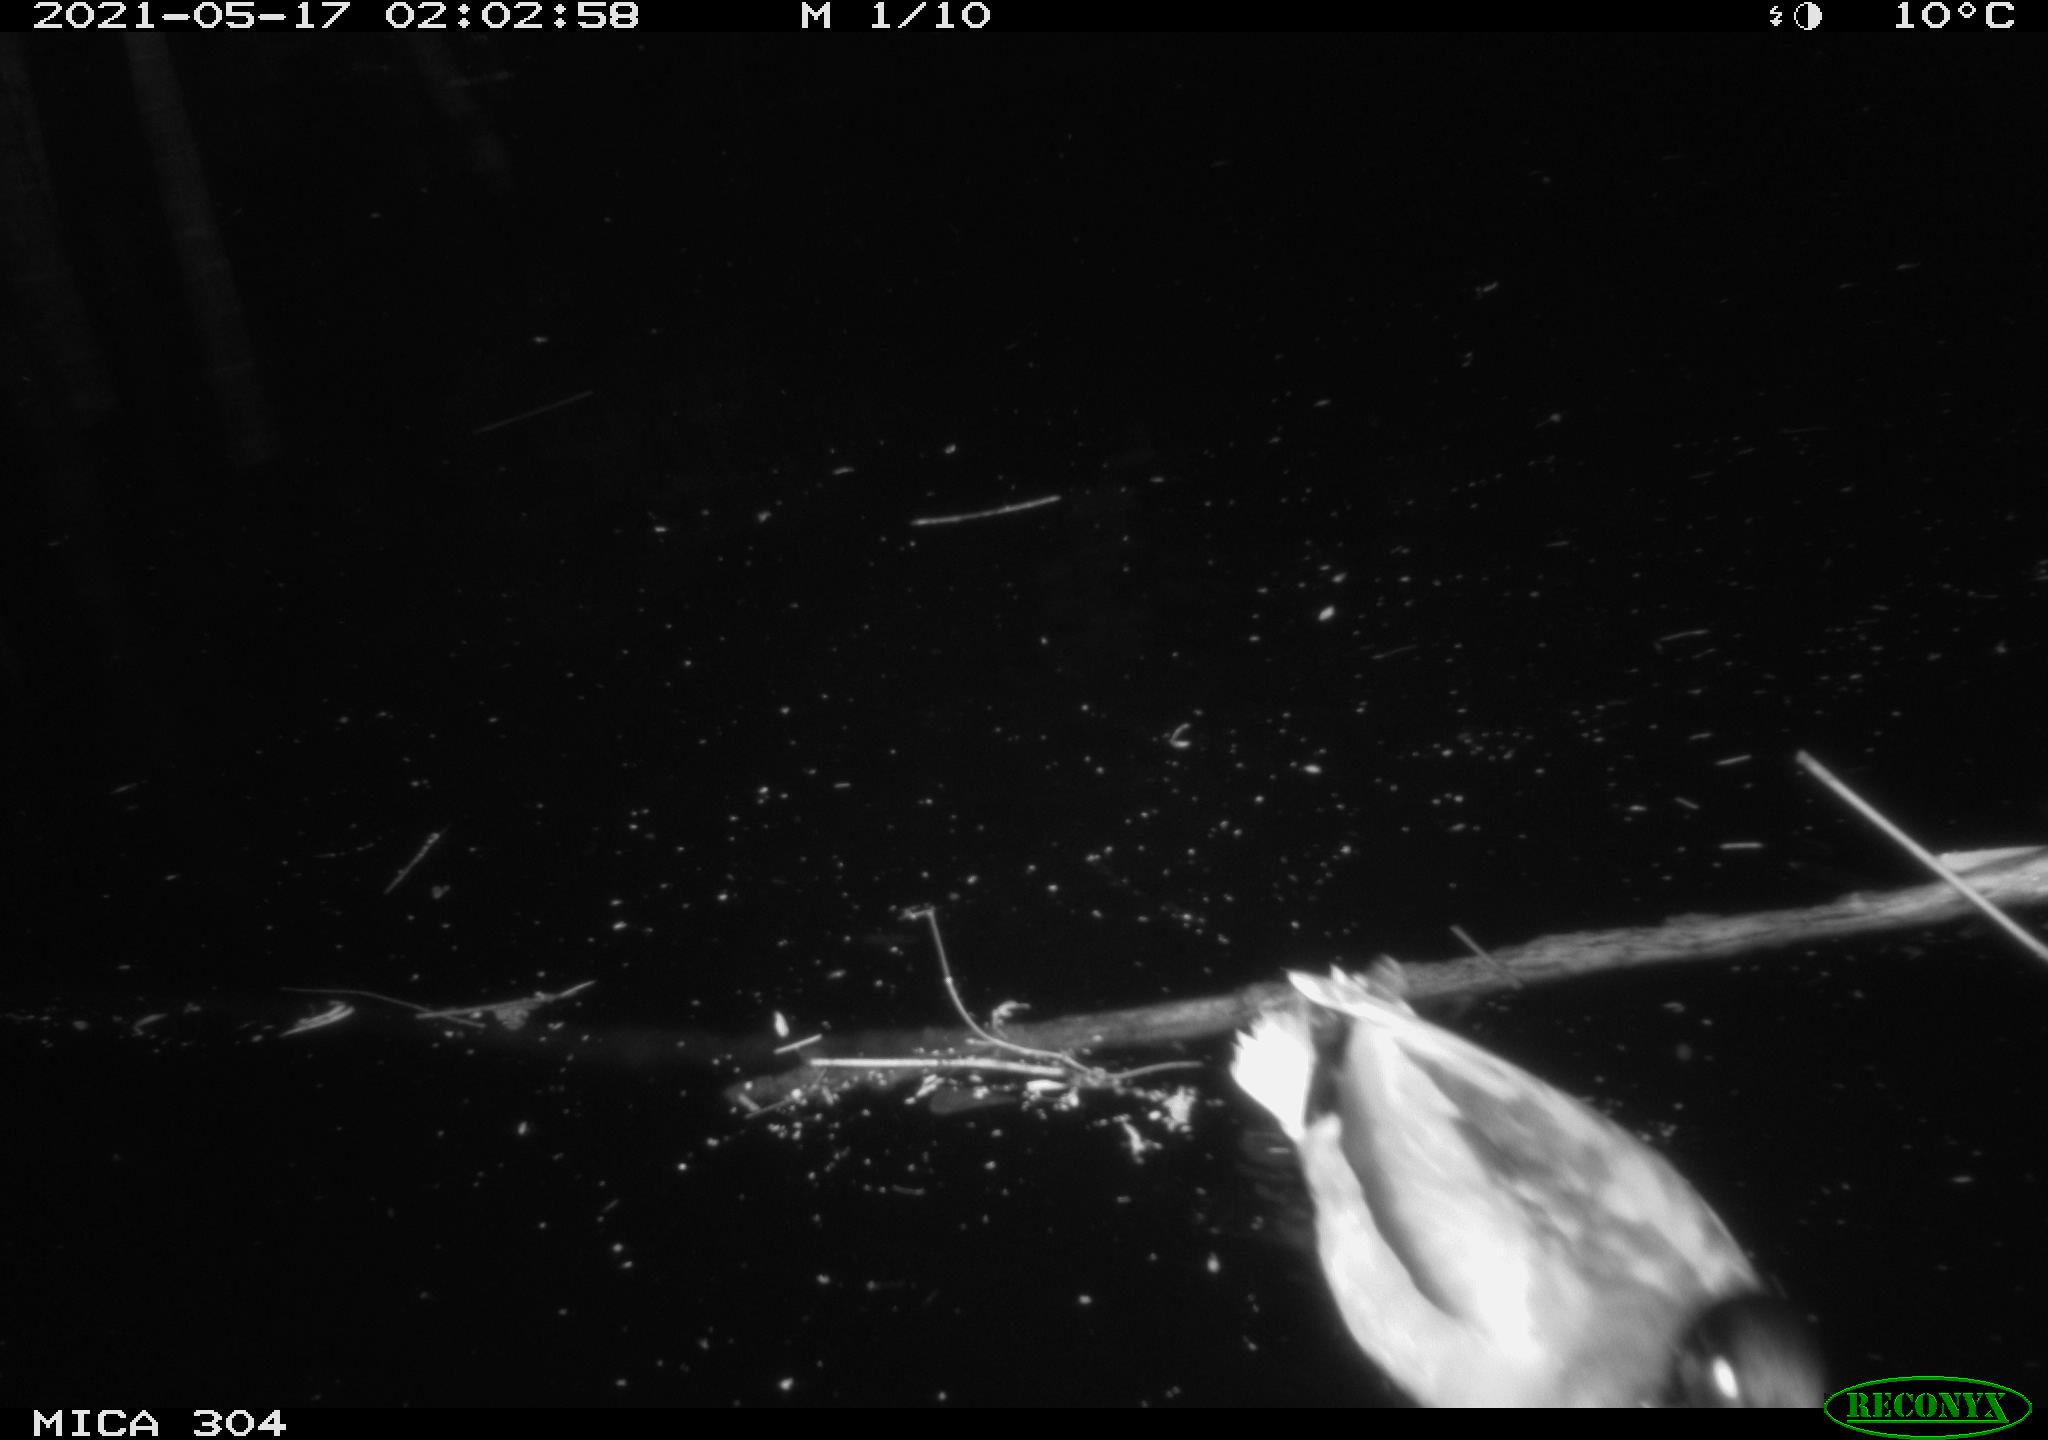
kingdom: Animalia
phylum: Chordata
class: Aves
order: Anseriformes
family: Anatidae
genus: Anas
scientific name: Anas platyrhynchos
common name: Mallard
